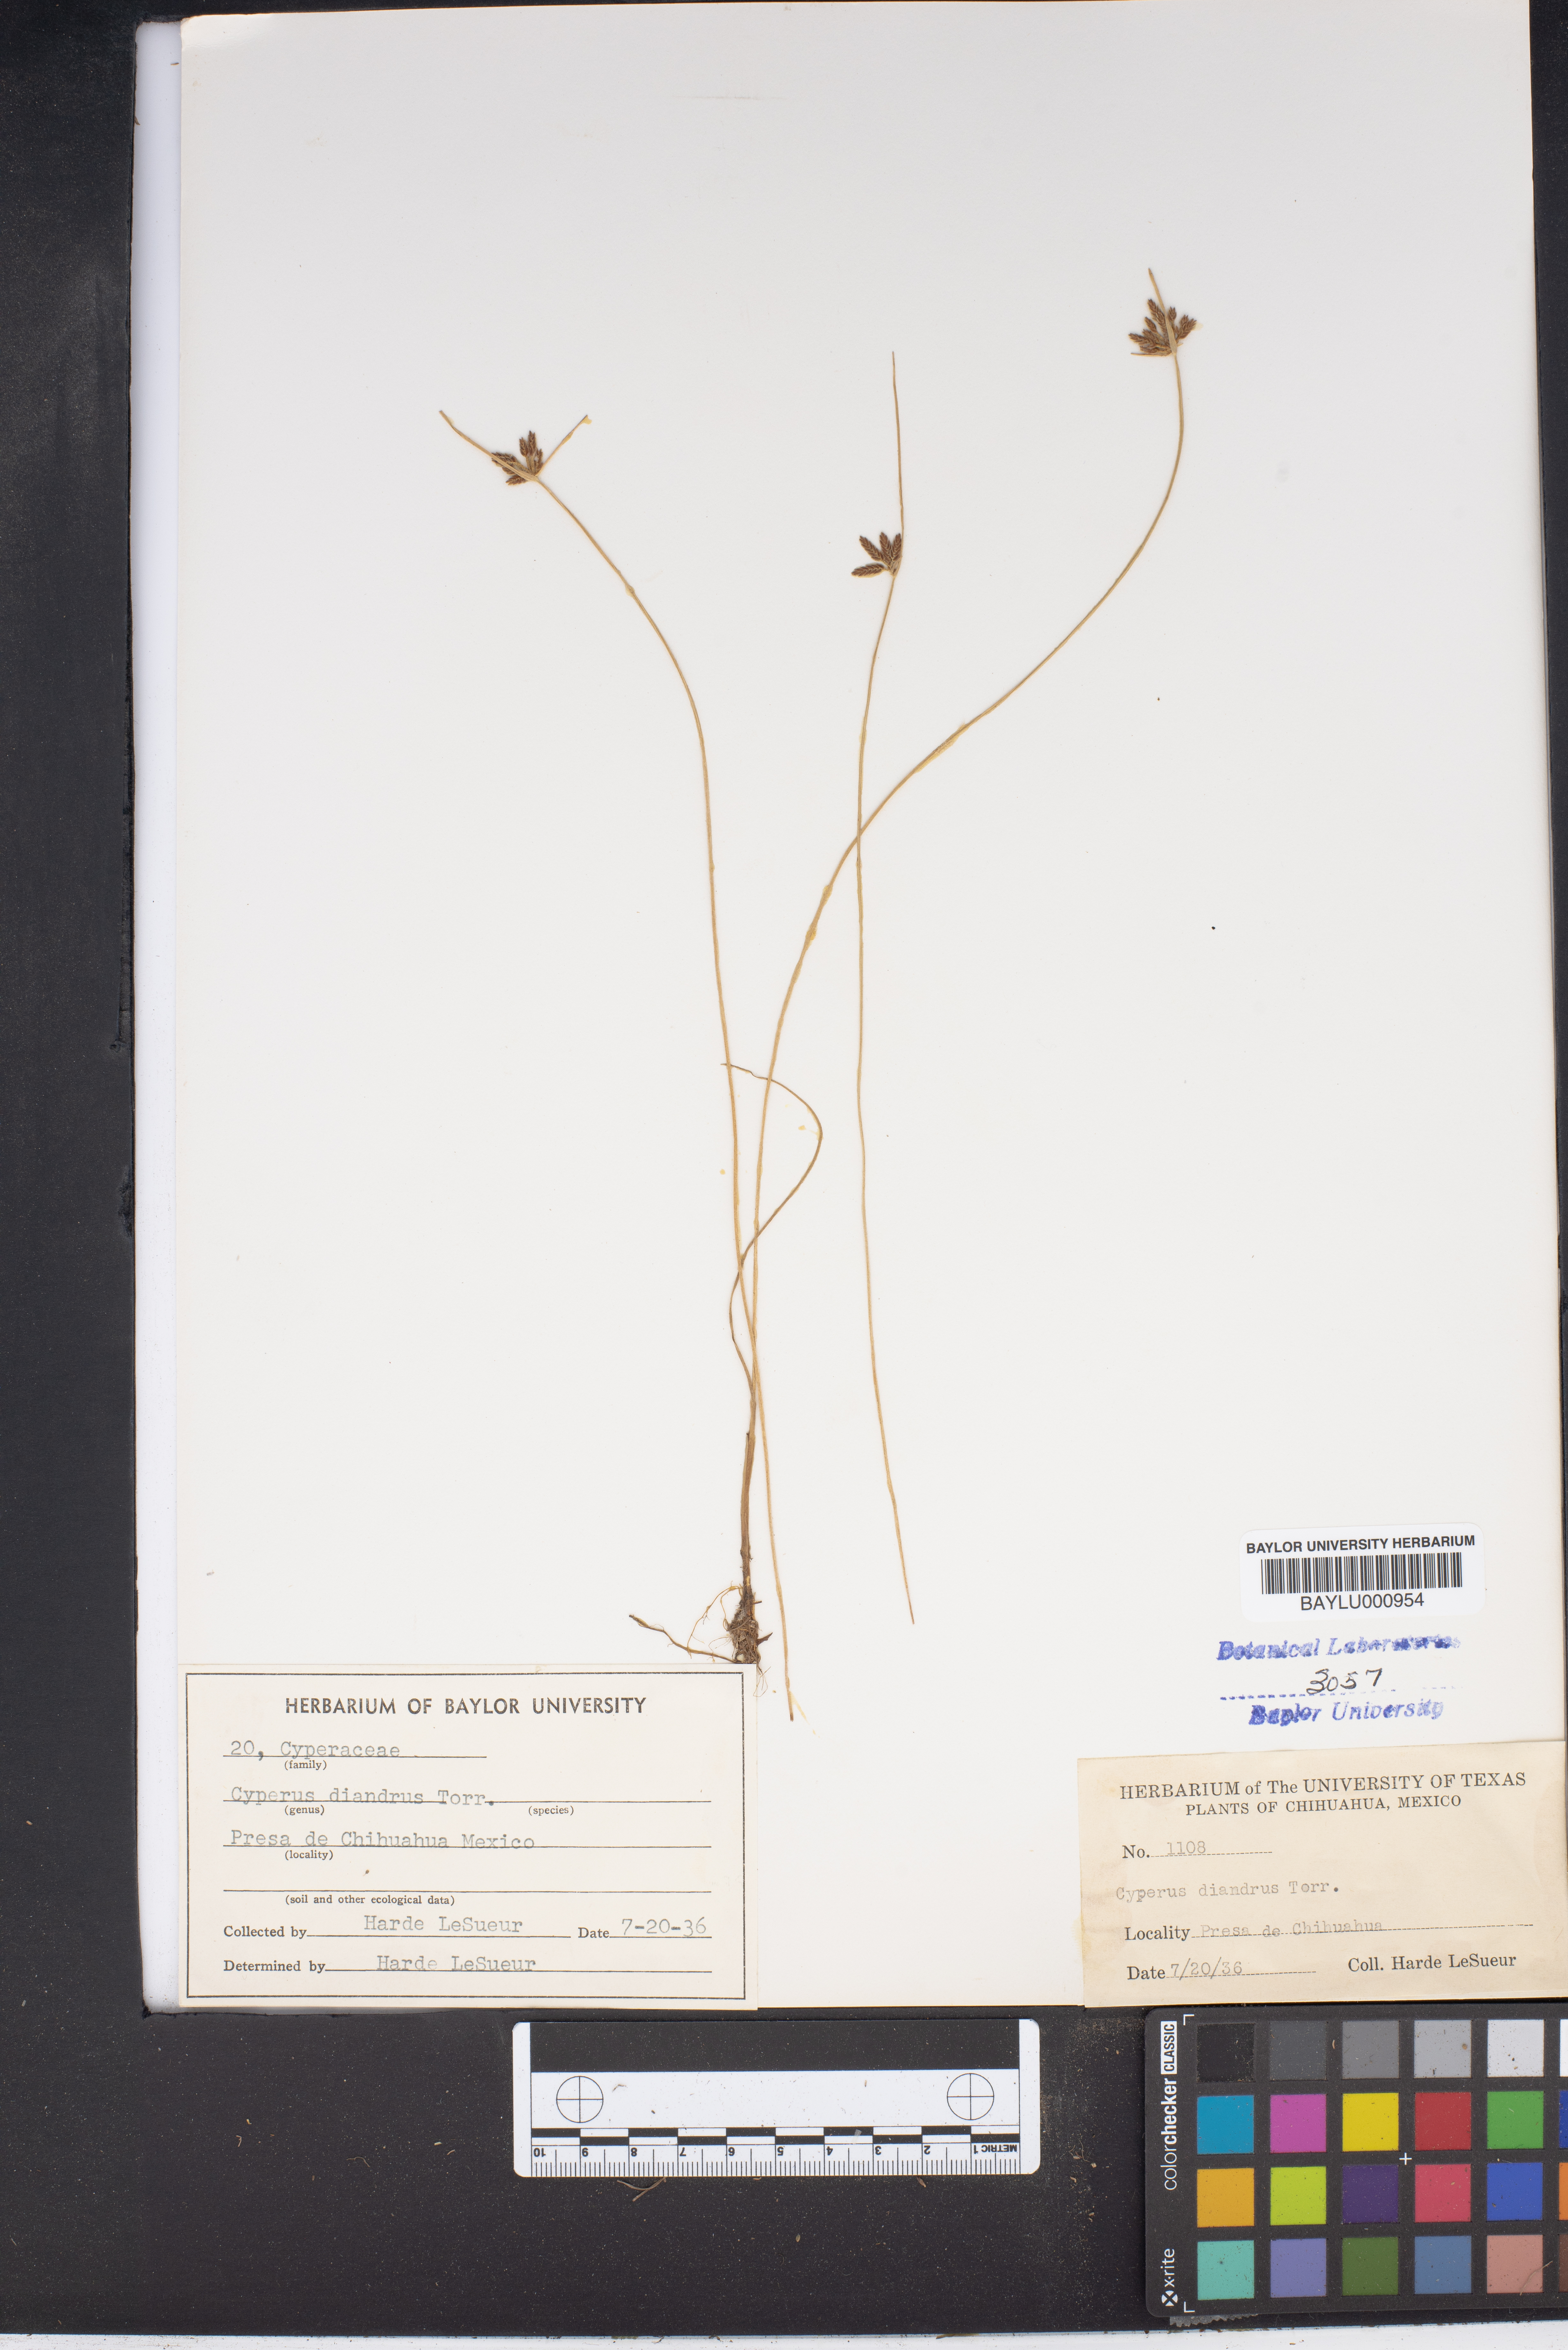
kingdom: Plantae
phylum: Tracheophyta
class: Liliopsida
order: Poales
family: Cyperaceae
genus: Cyperus
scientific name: Cyperus diandrus
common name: Low cyperus
